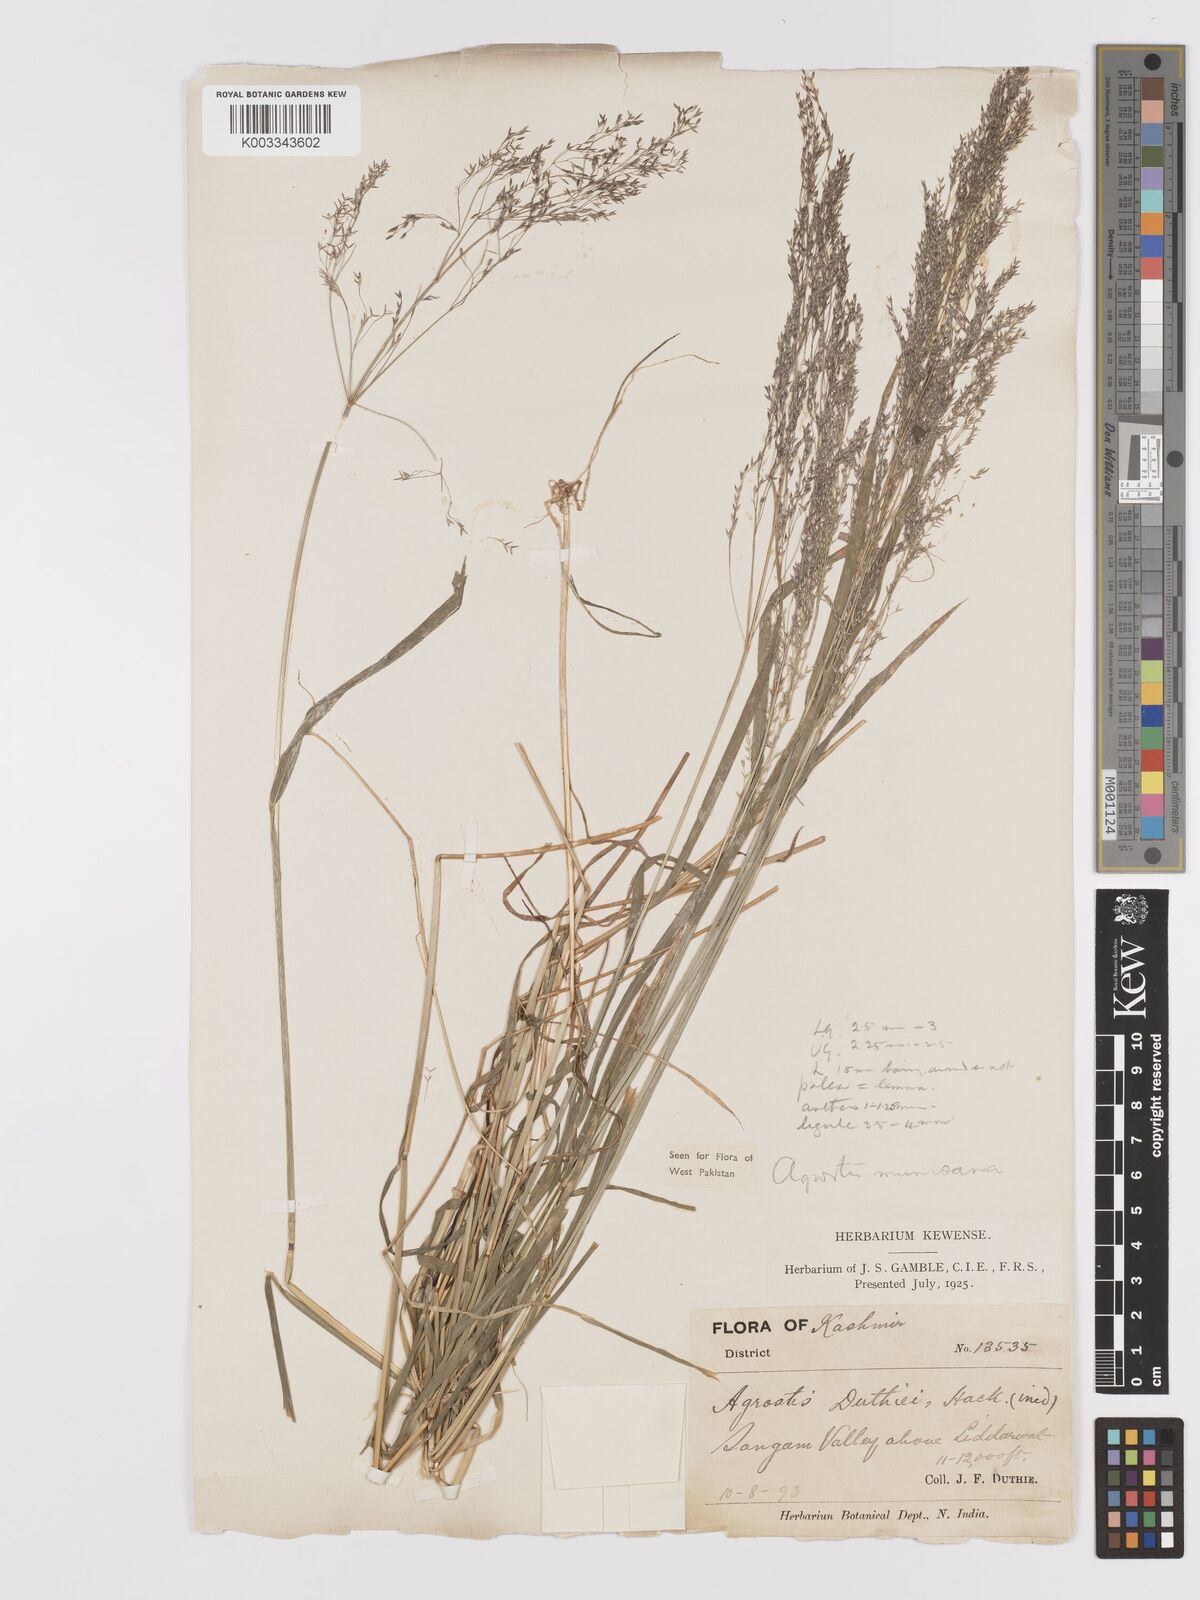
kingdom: Plantae
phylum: Tracheophyta
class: Liliopsida
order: Poales
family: Poaceae
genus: Agrostis
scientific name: Agrostis munroana
